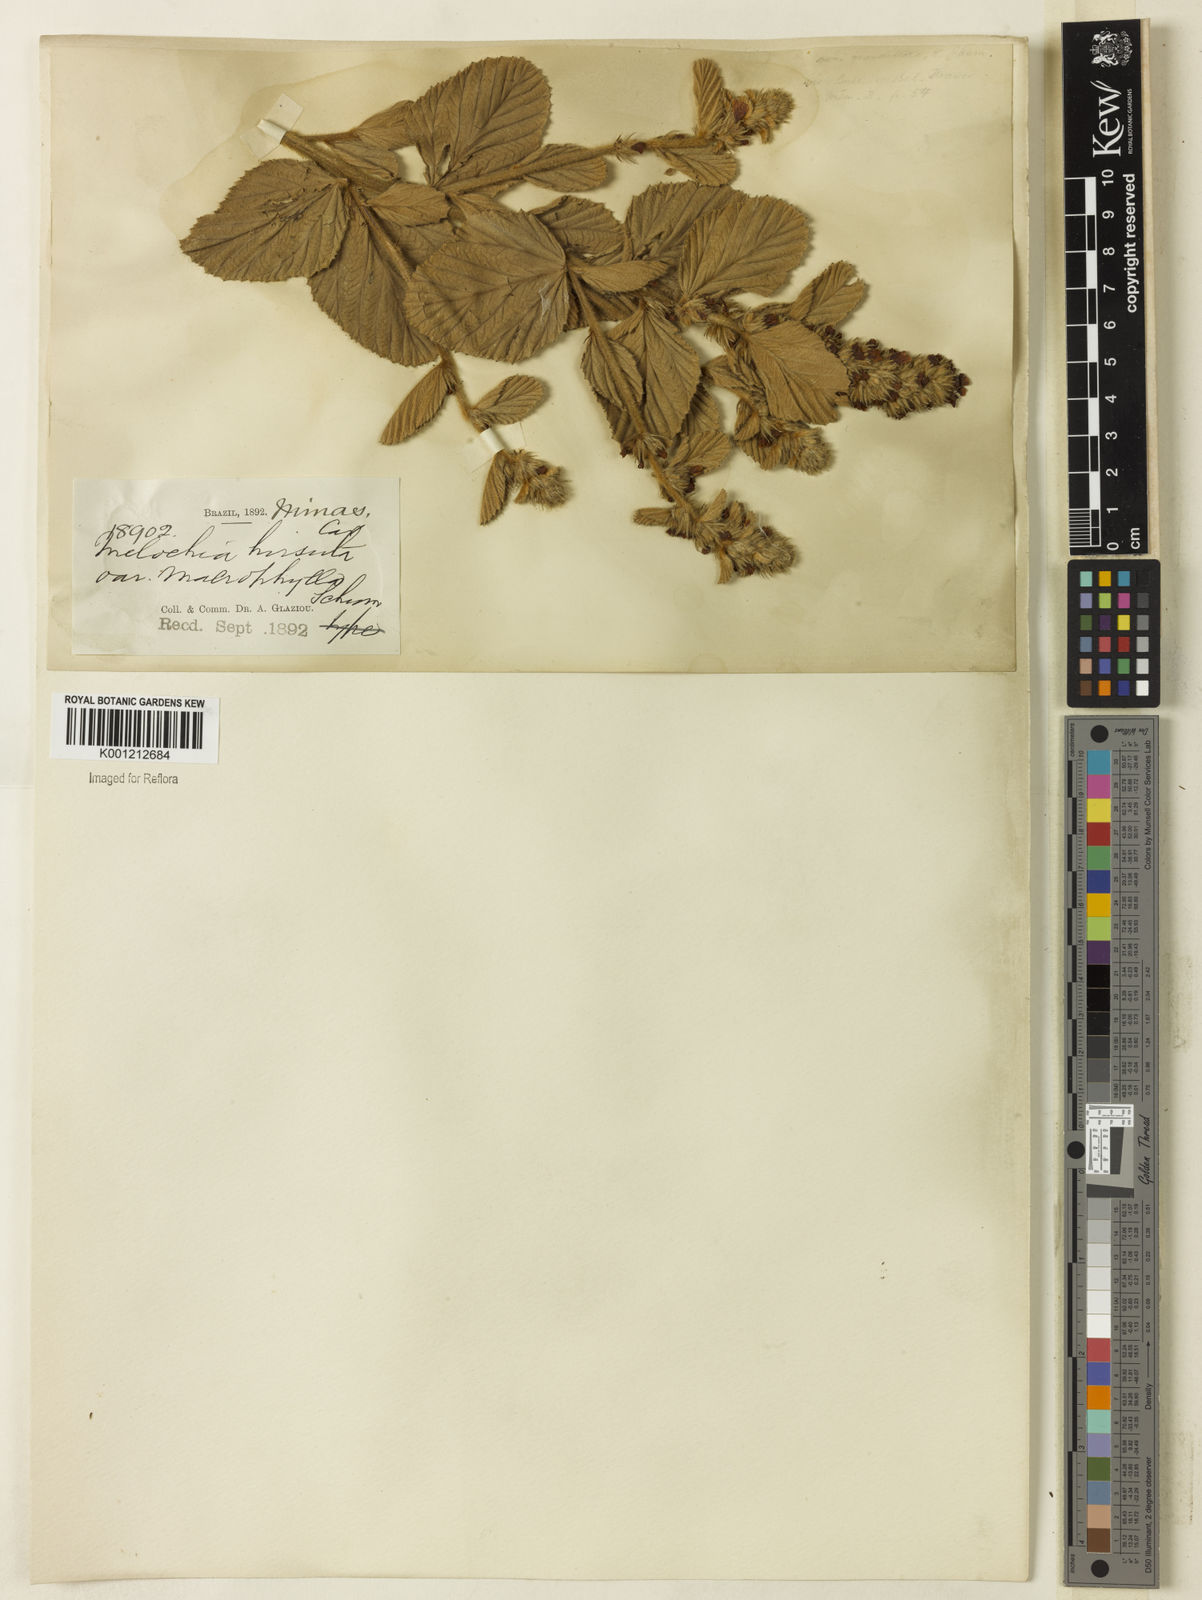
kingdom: Plantae
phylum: Tracheophyta
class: Magnoliopsida
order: Malvales
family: Malvaceae
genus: Melochia
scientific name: Melochia spicata
